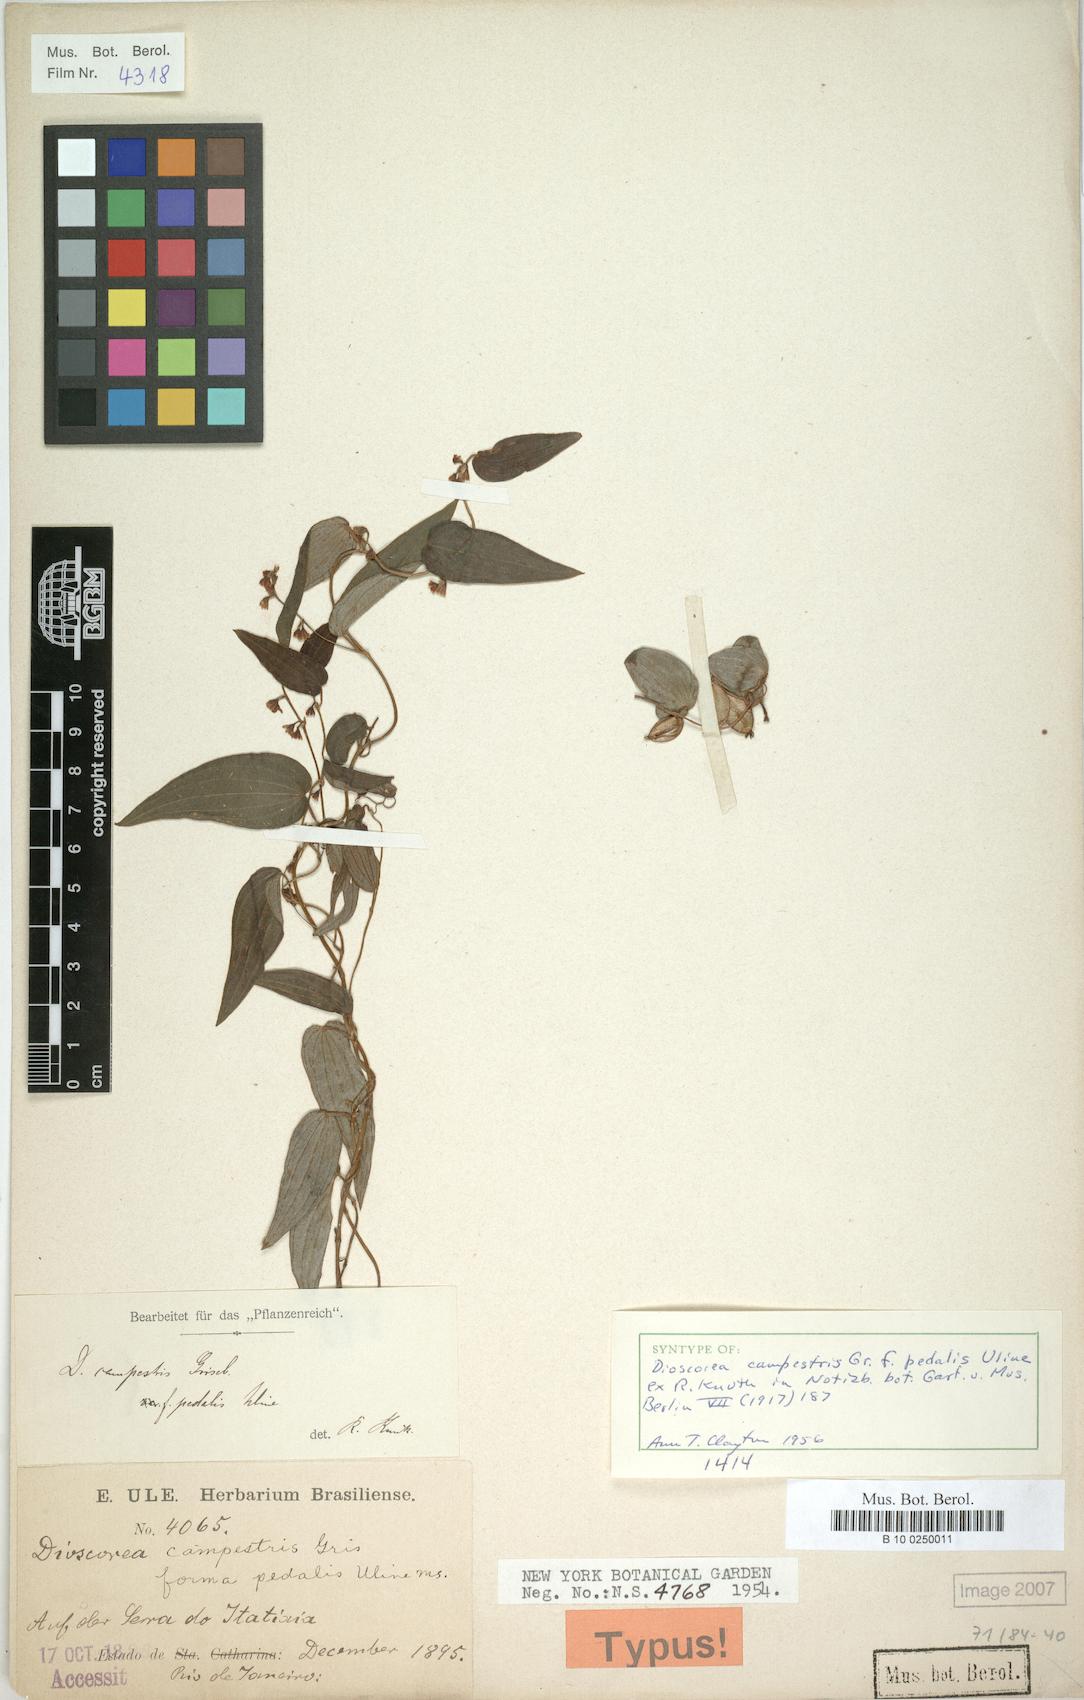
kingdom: Plantae
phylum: Tracheophyta
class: Liliopsida
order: Dioscoreales
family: Dioscoreaceae
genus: Dioscorea
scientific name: Dioscorea pedalis
